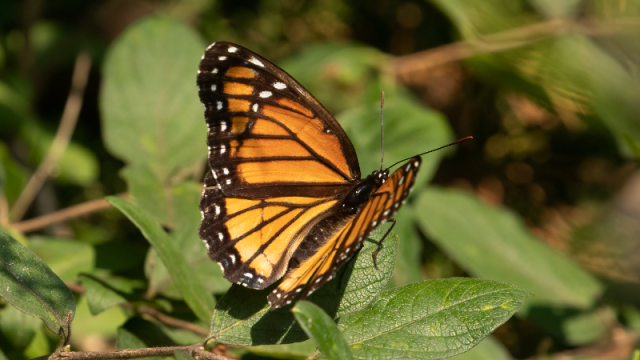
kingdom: Animalia
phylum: Arthropoda
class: Insecta
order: Lepidoptera
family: Nymphalidae
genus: Limenitis
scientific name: Limenitis archippus
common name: Viceroy
